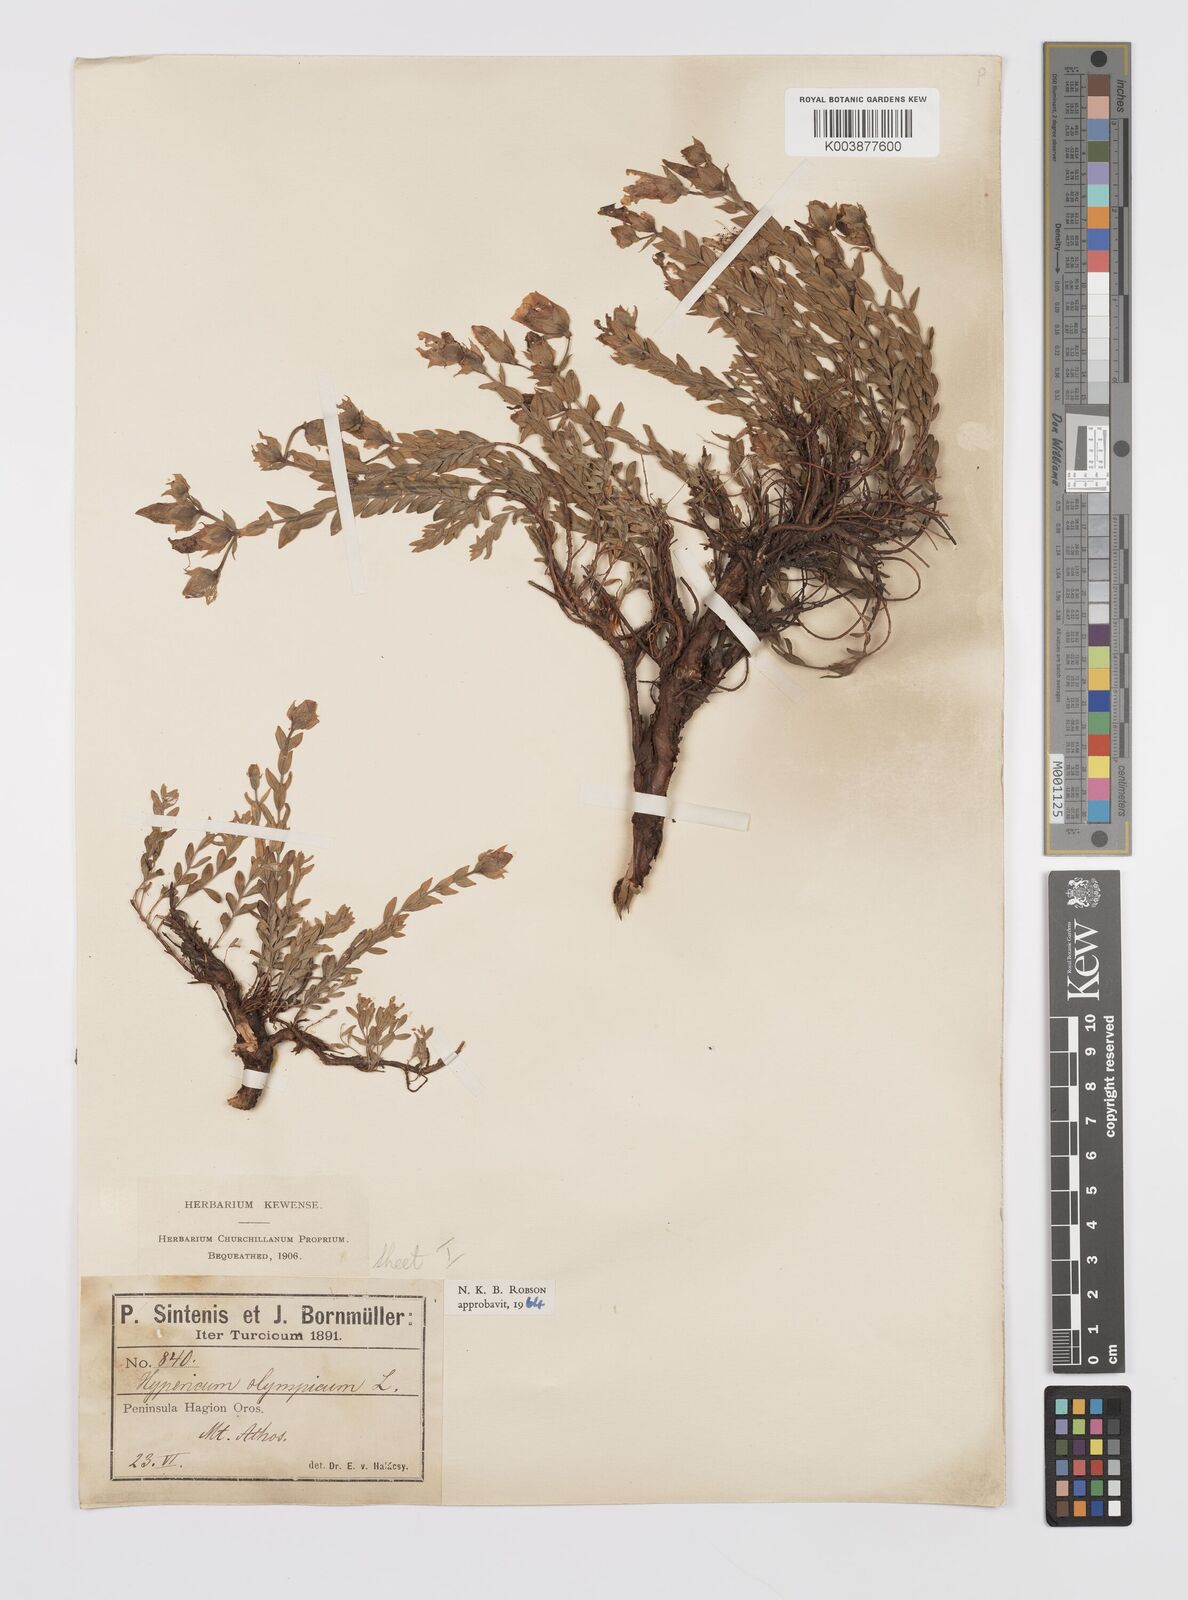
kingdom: Plantae
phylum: Tracheophyta
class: Magnoliopsida
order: Malpighiales
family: Hypericaceae
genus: Hypericum
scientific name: Hypericum olympicum
